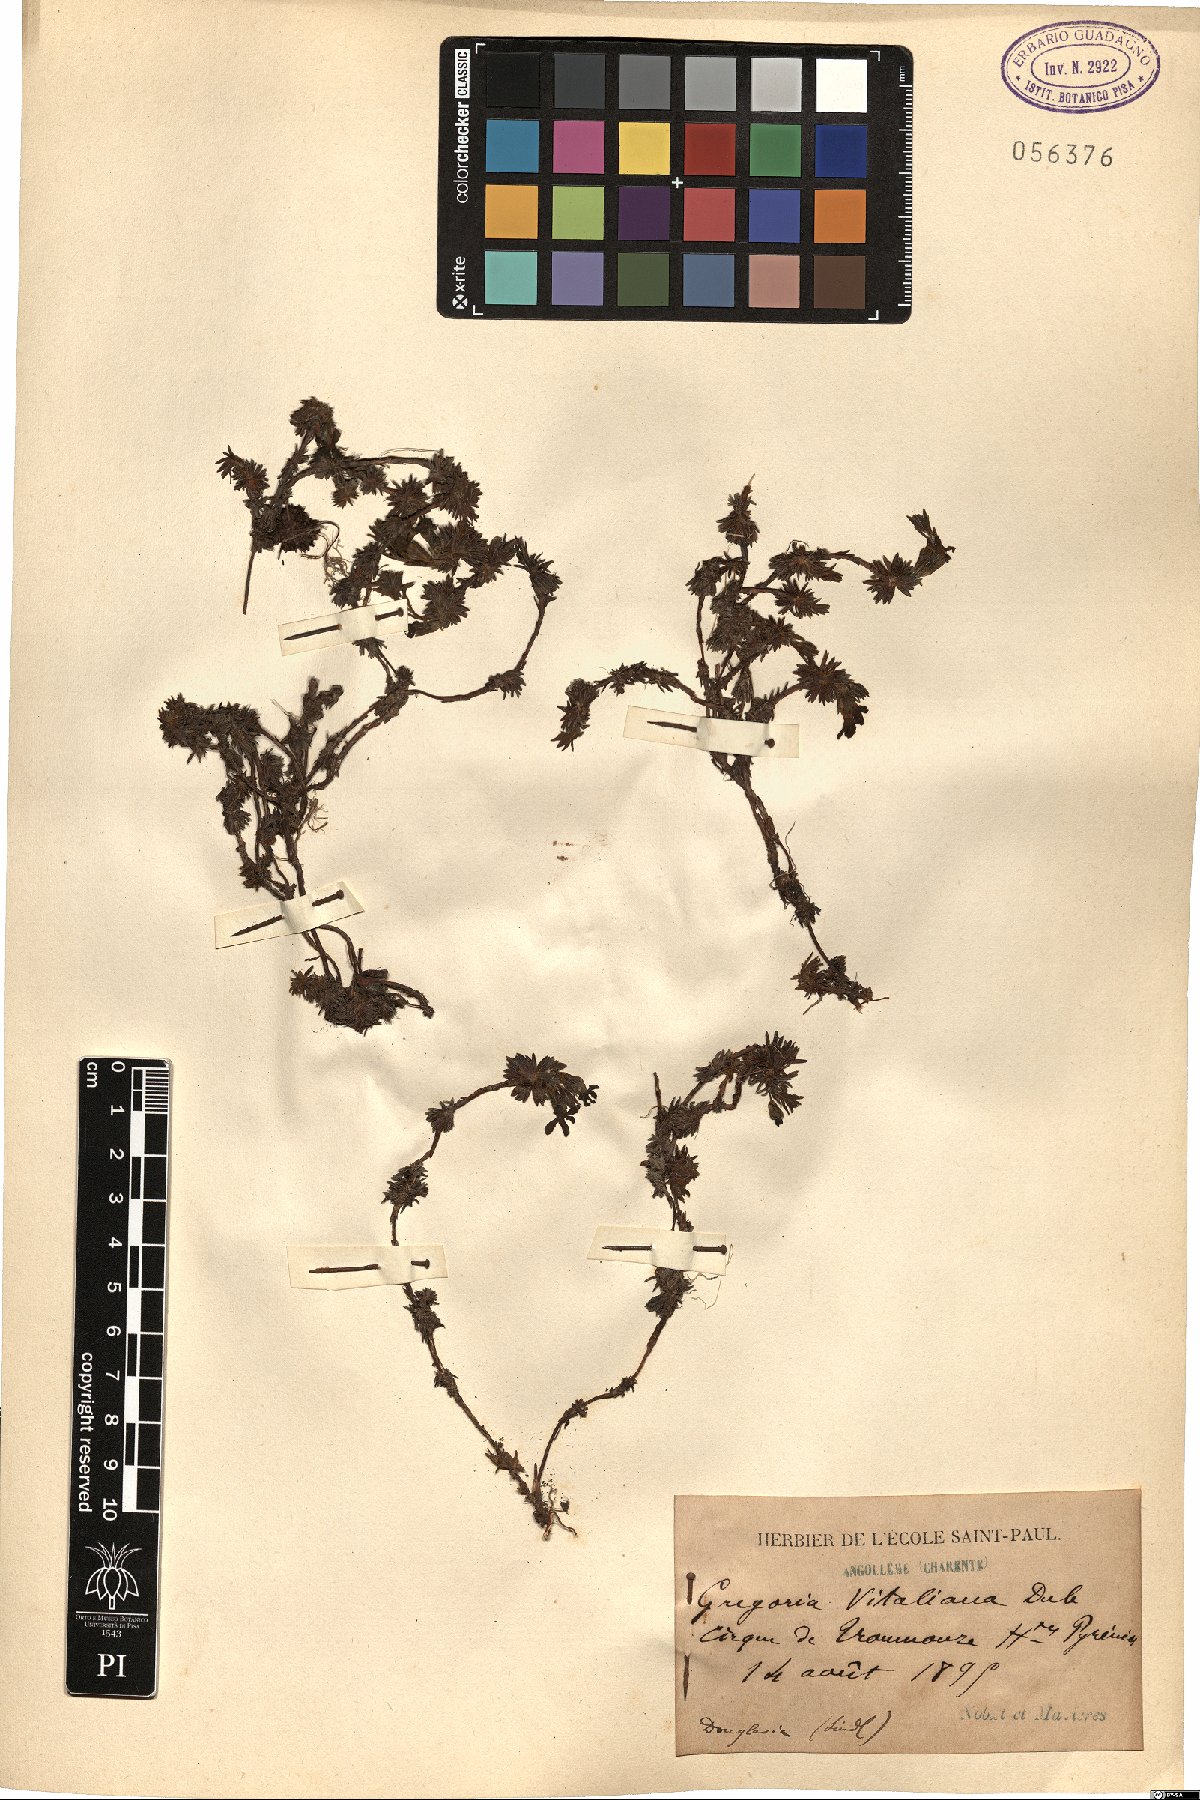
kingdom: Plantae
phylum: Tracheophyta
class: Magnoliopsida
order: Ericales
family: Primulaceae
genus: Androsace
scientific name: Androsace vitaliana
